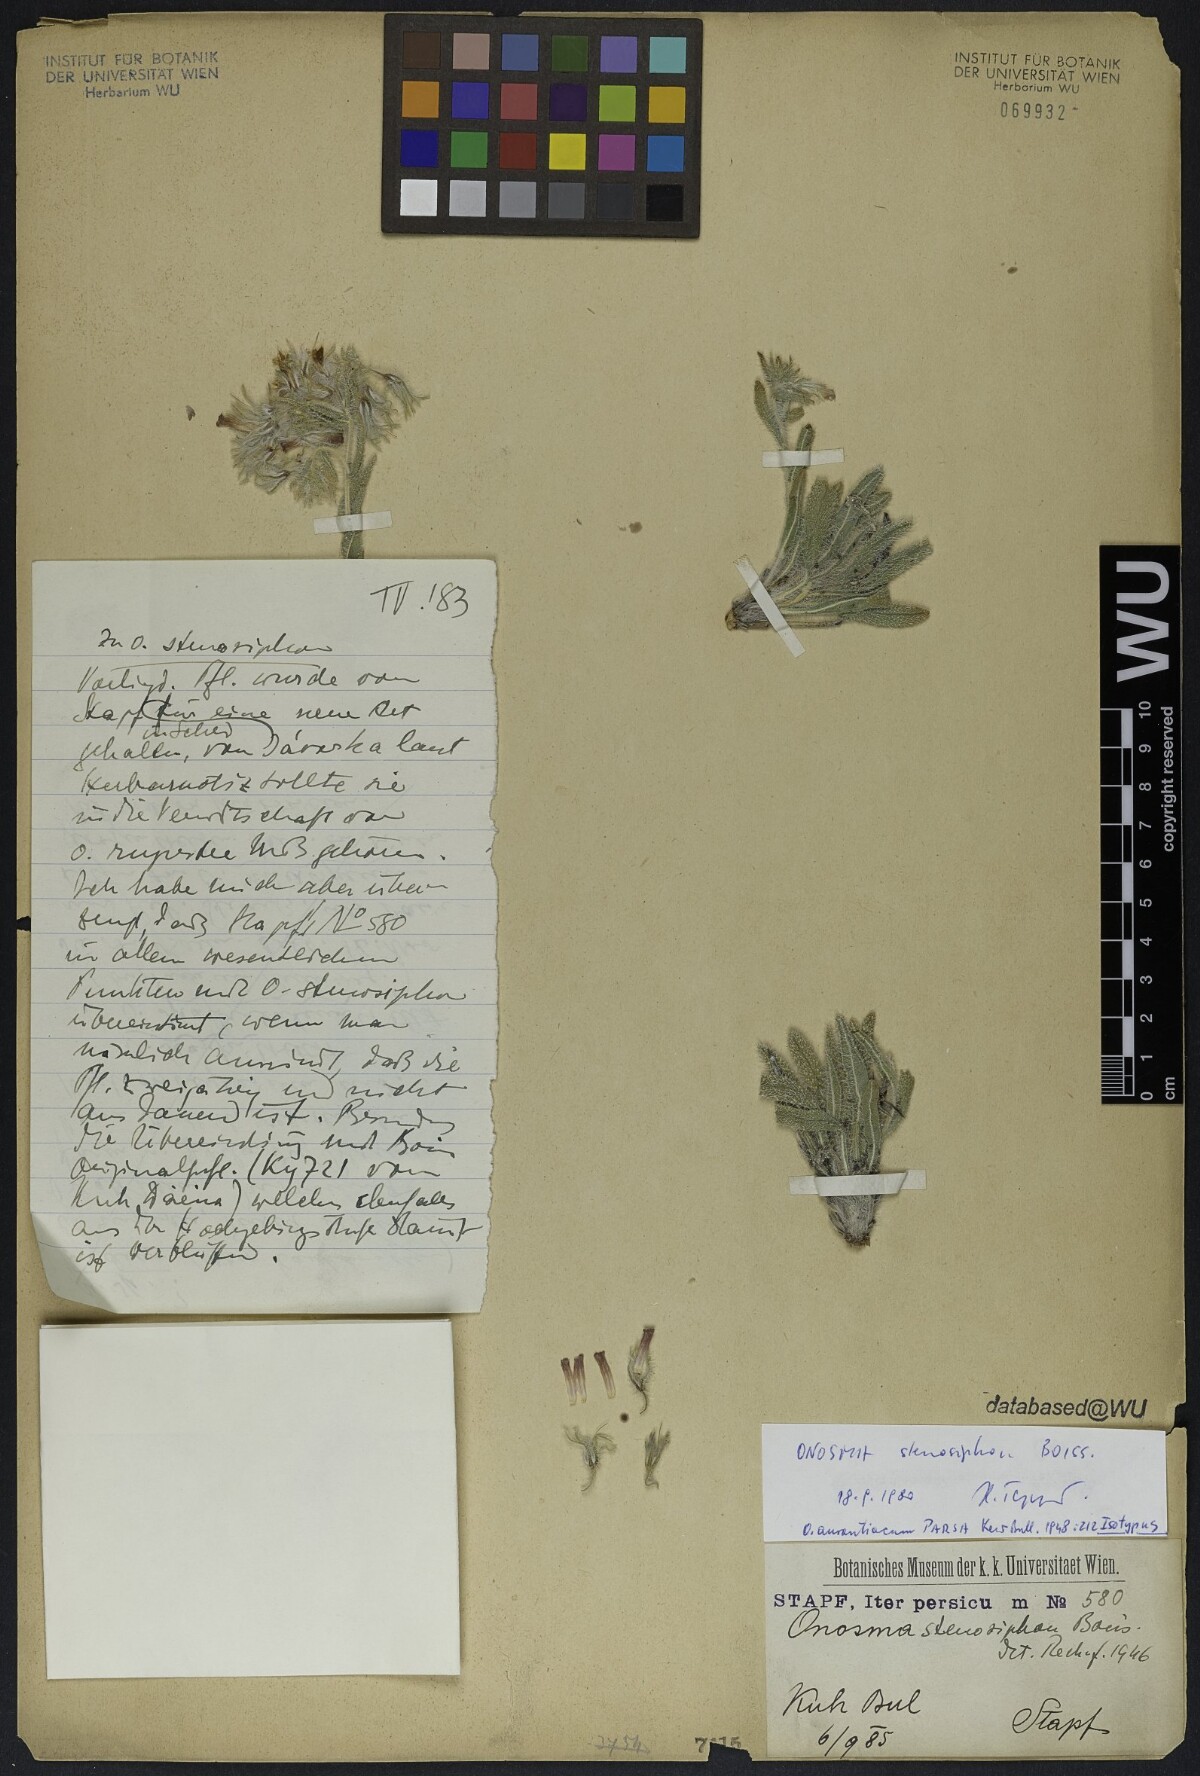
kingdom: Plantae
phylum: Tracheophyta
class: Magnoliopsida
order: Boraginales
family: Boraginaceae
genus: Maharanga
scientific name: Maharanga stenosiphon
